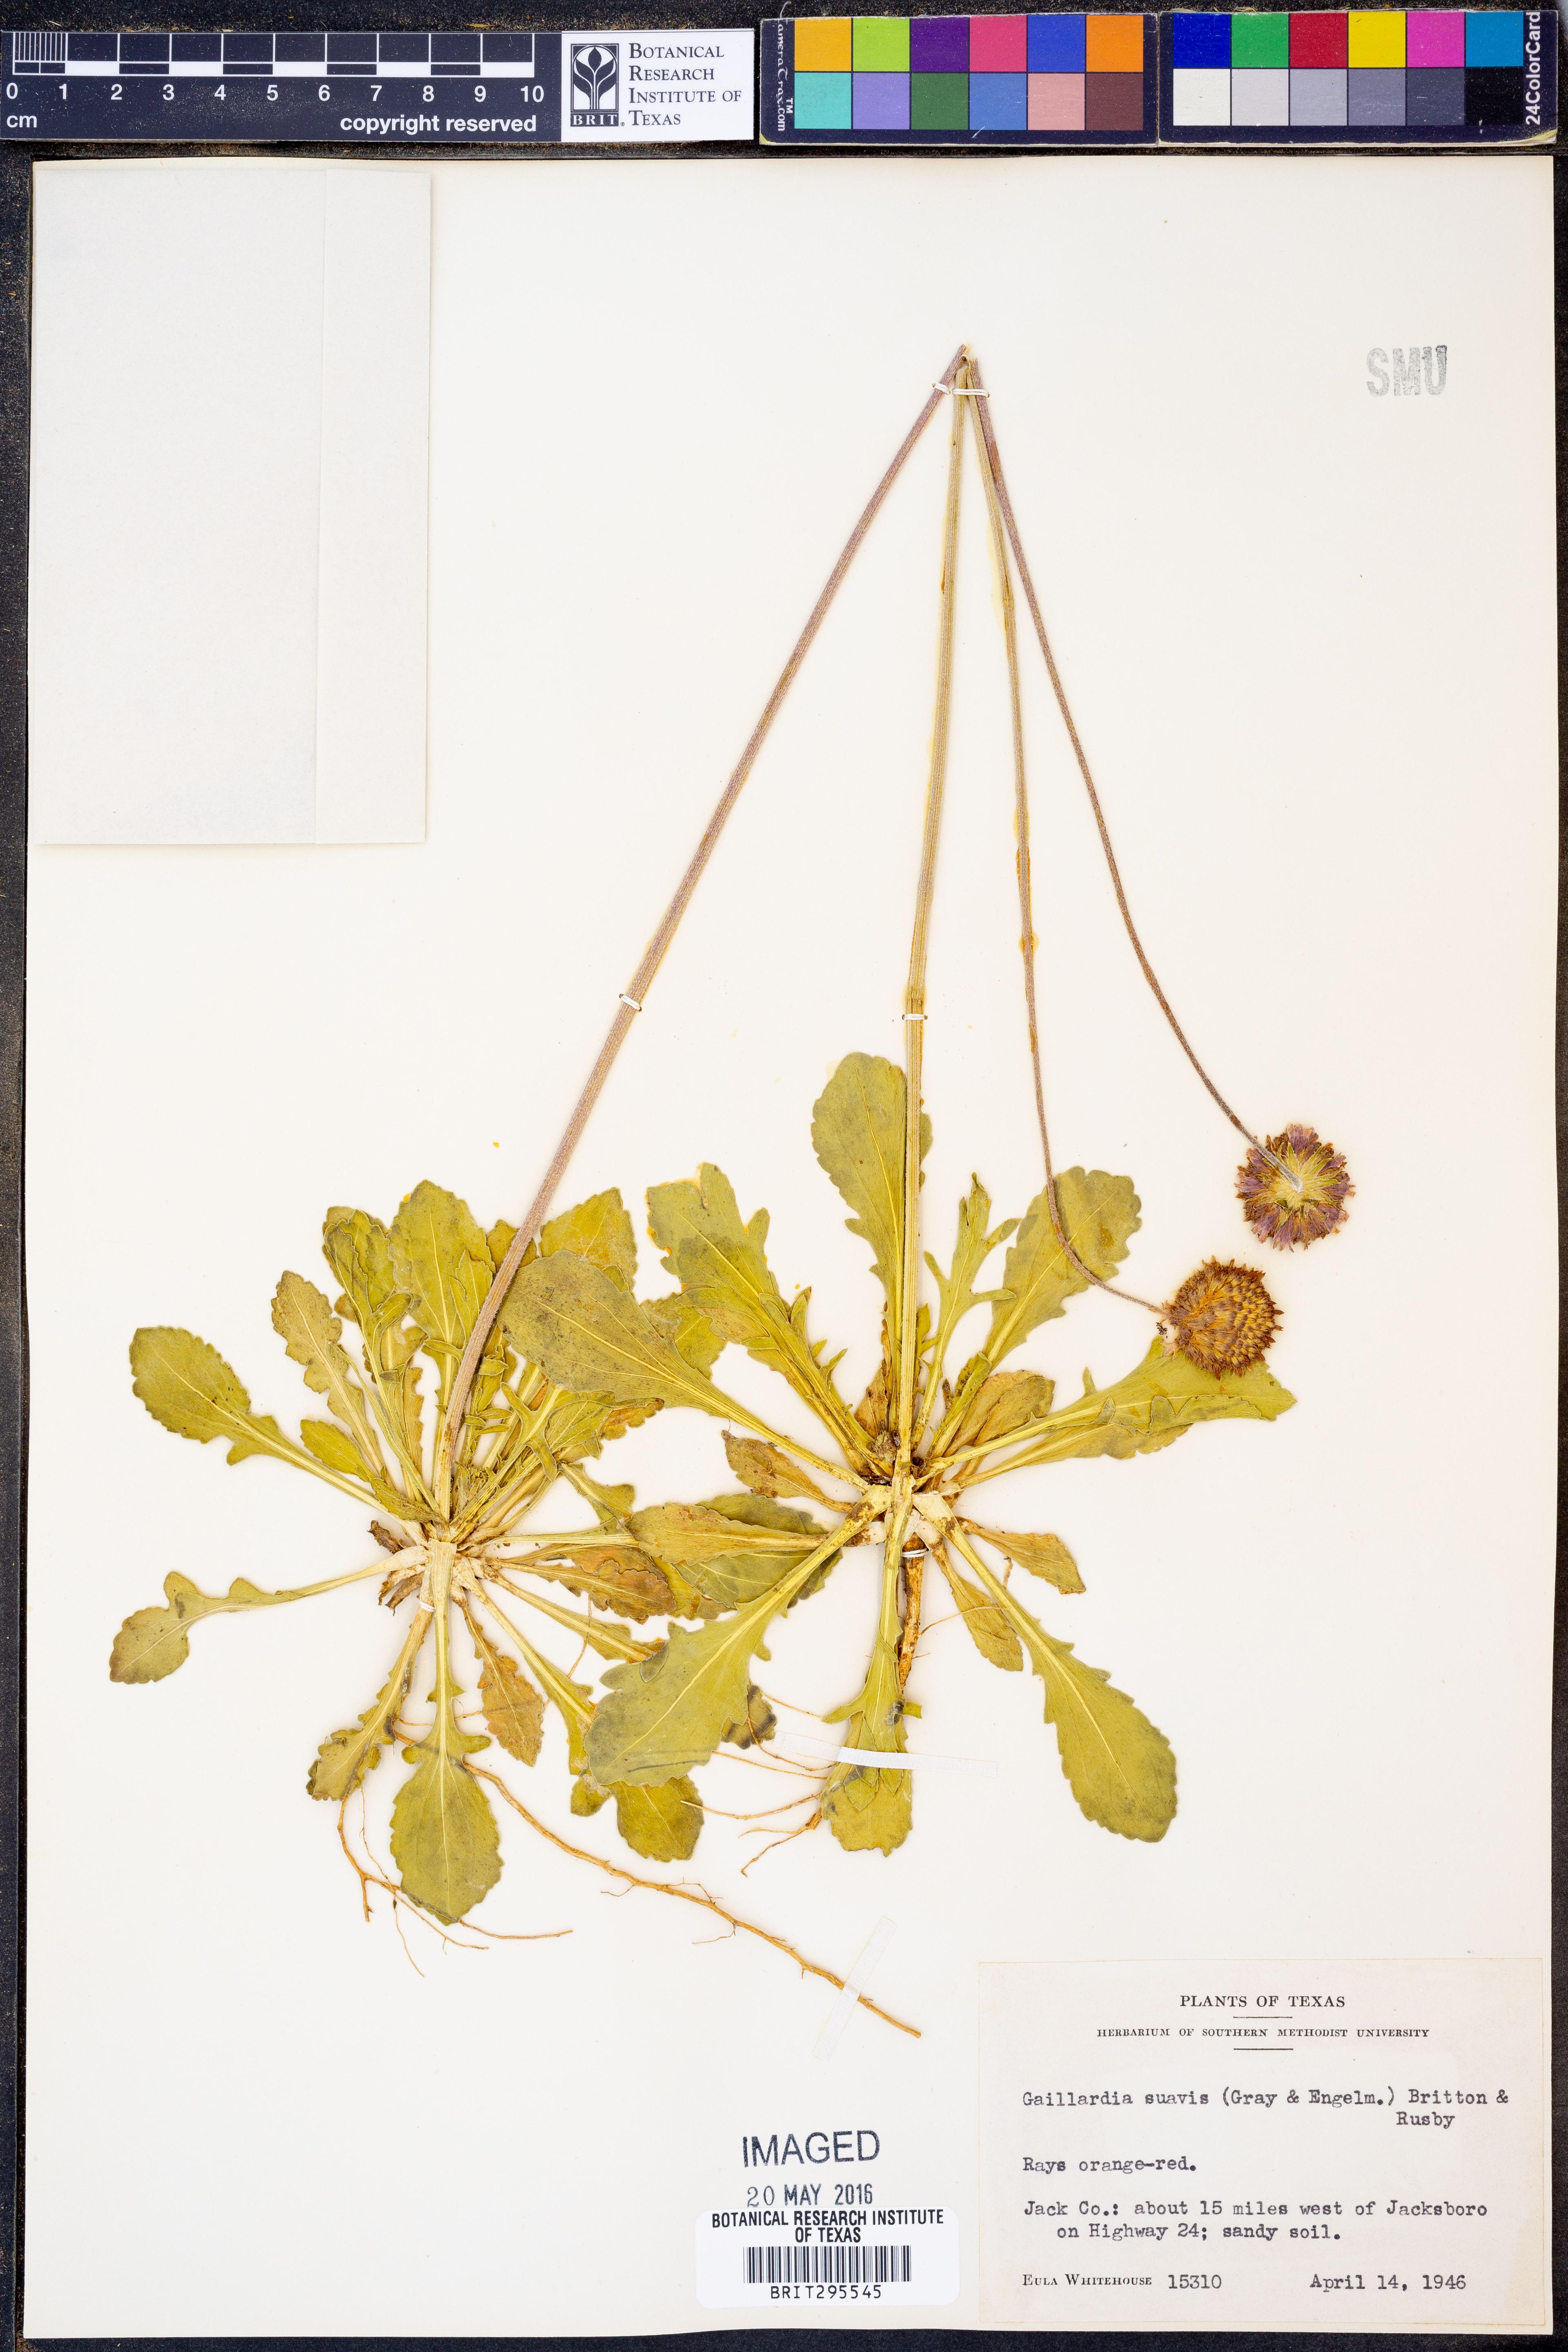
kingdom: Plantae
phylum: Tracheophyta
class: Magnoliopsida
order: Asterales
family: Asteraceae
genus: Gaillardia
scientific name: Gaillardia suavis
